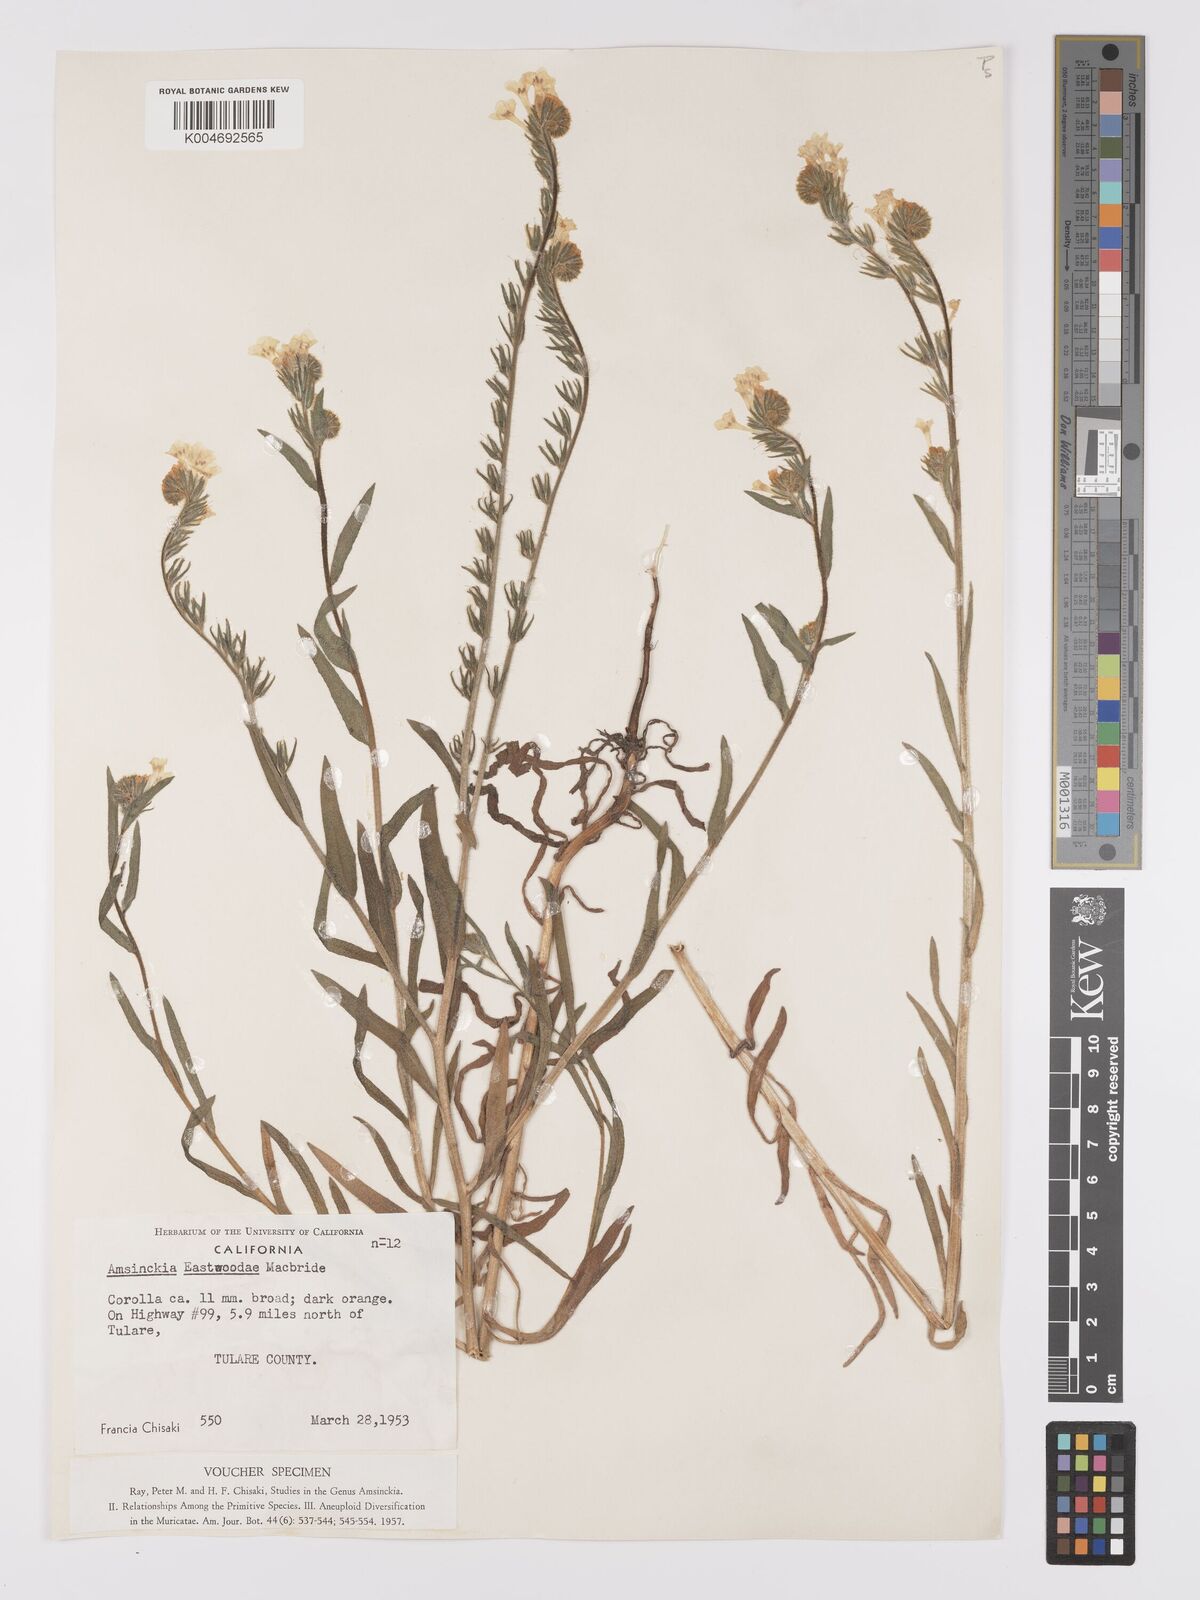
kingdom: Plantae
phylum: Tracheophyta
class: Magnoliopsida
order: Boraginales
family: Boraginaceae
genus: Amsinckia
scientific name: Amsinckia eastwoodiae
